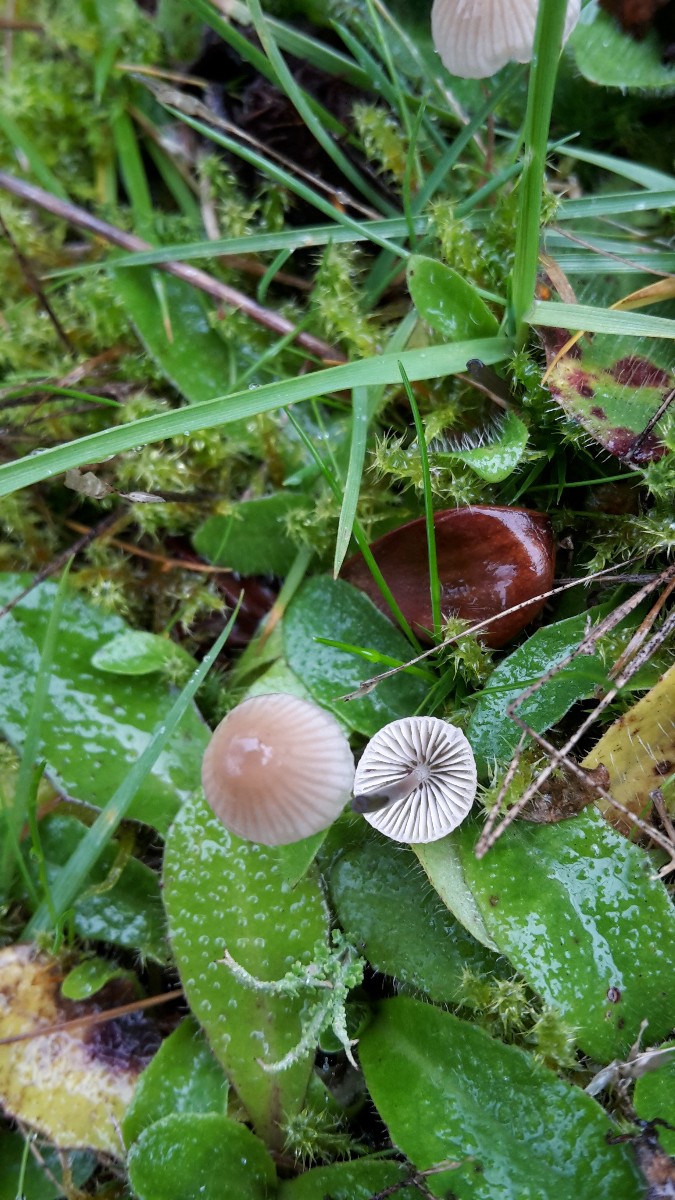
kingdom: Fungi
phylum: Basidiomycota
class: Agaricomycetes
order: Agaricales
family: Mycenaceae
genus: Mycena
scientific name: Mycena metata
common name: rødlig huesvamp
